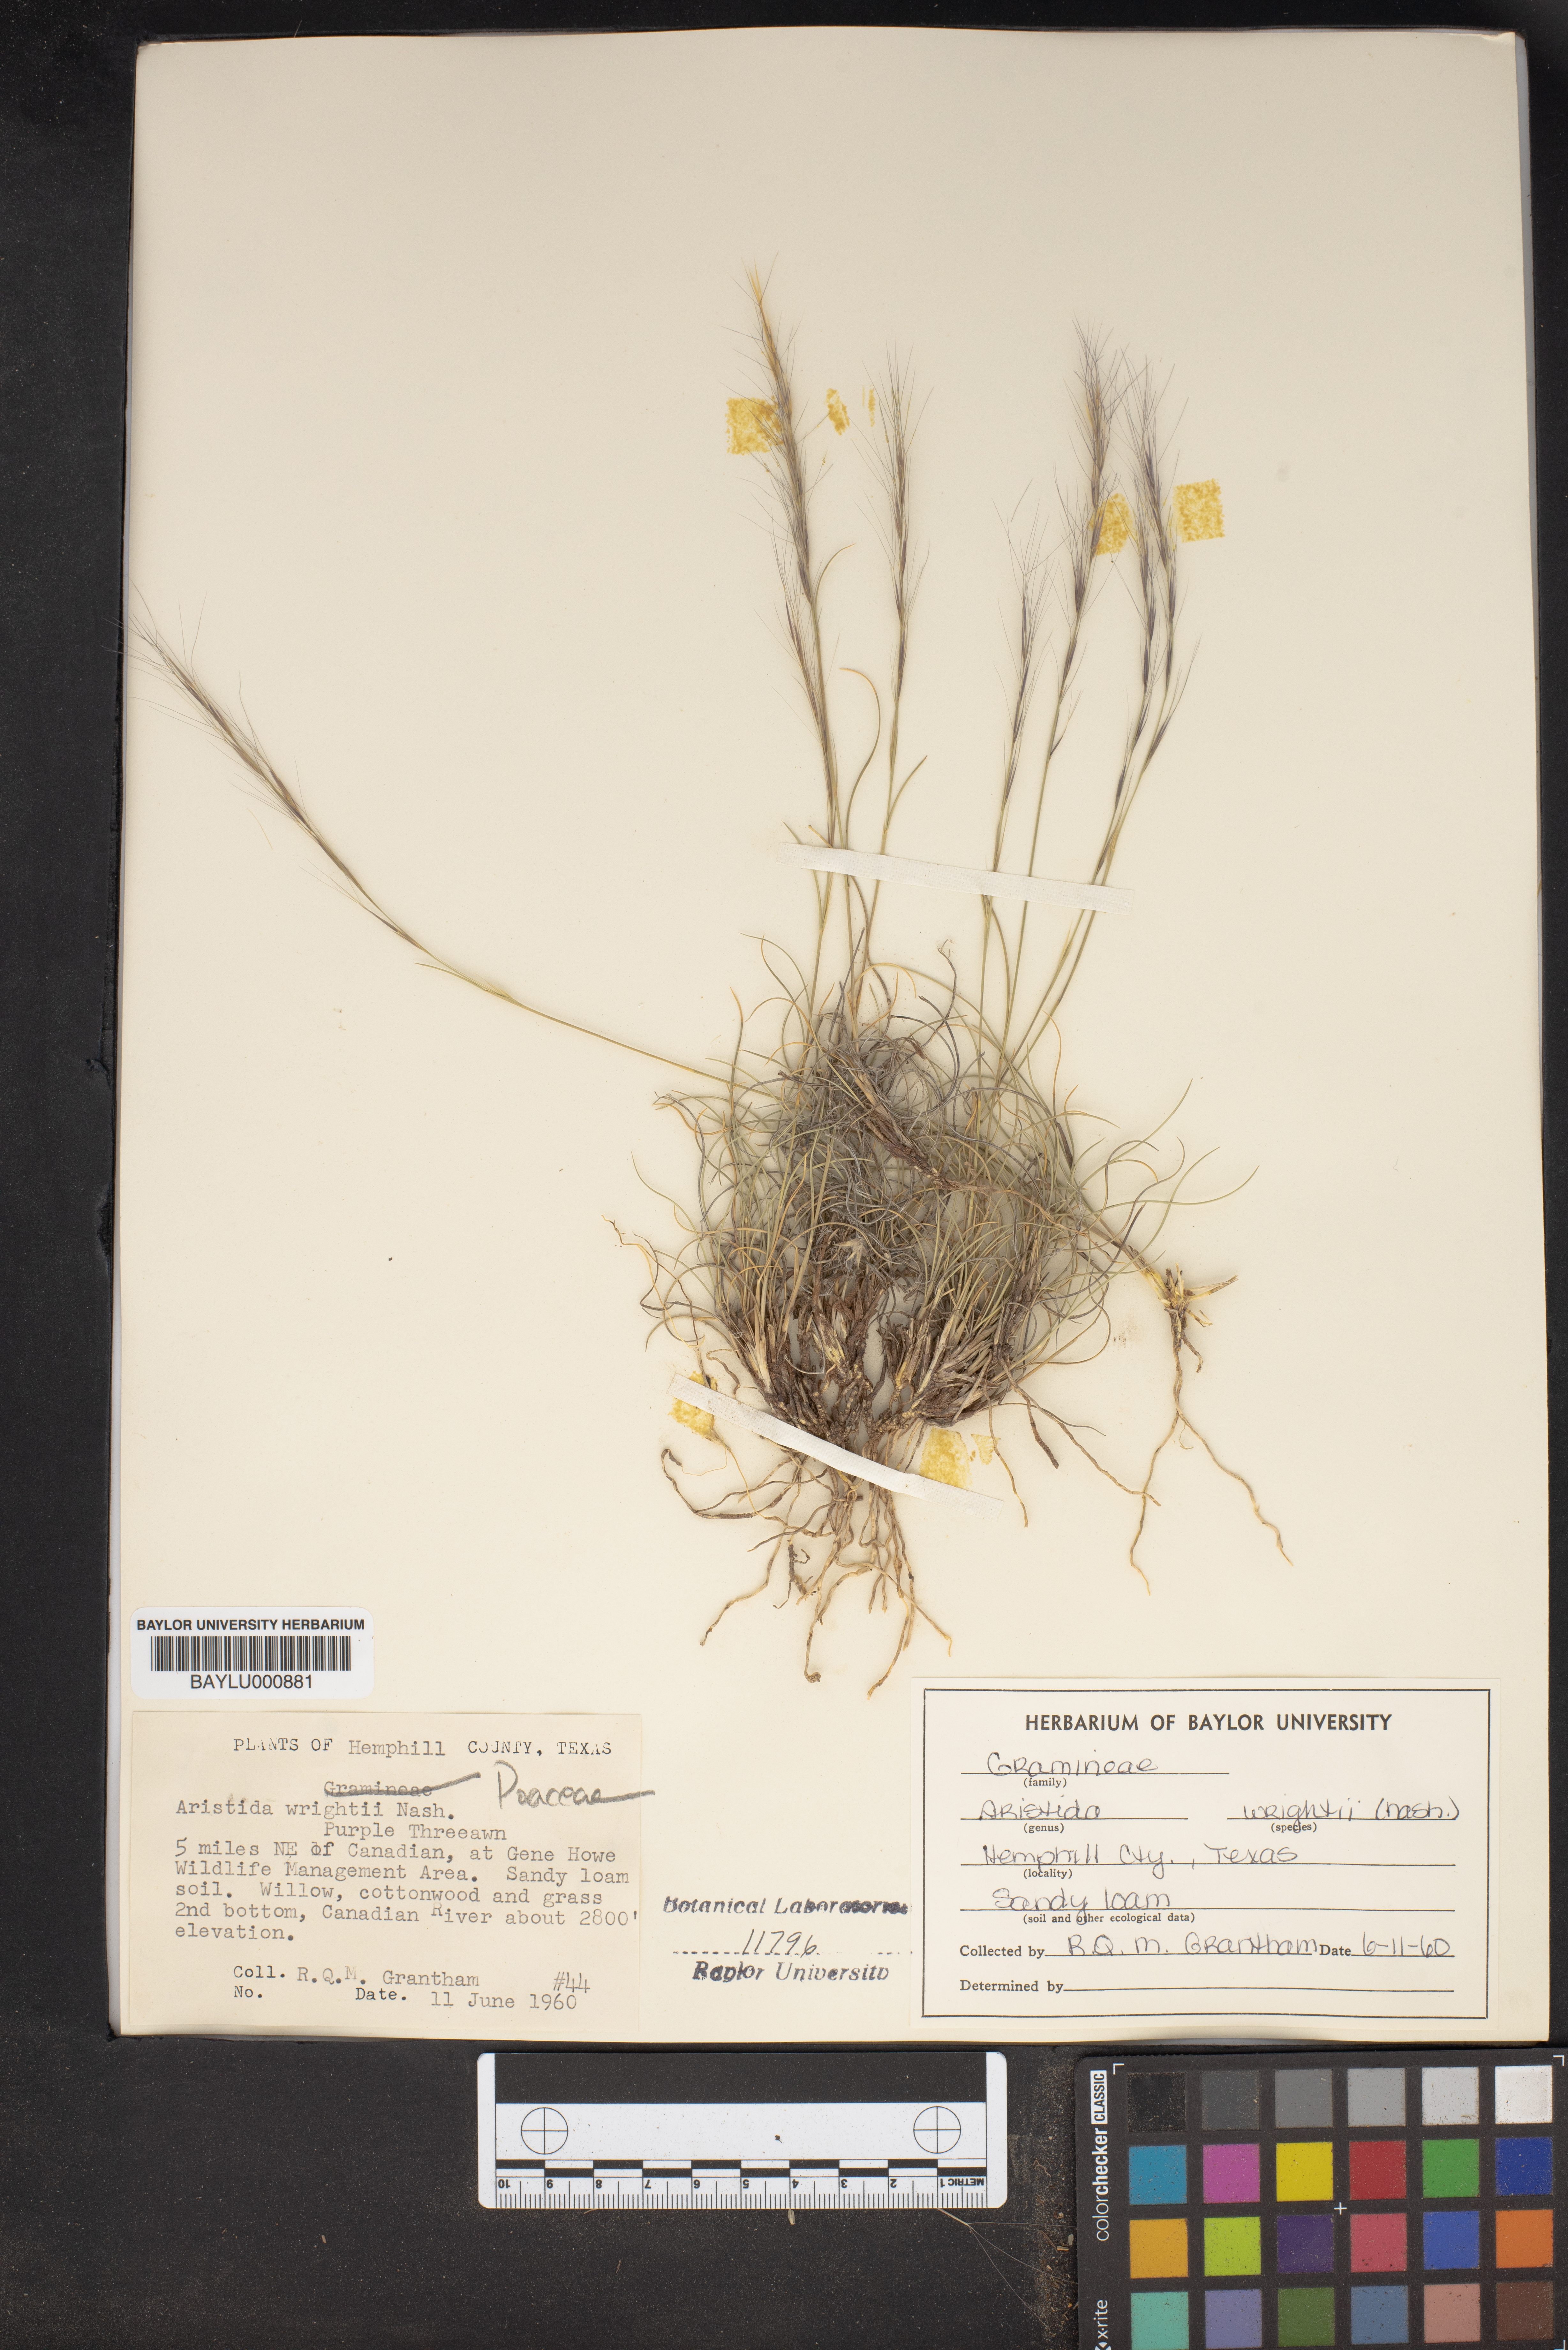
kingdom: Plantae
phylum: Tracheophyta
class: Liliopsida
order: Poales
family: Poaceae
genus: Aristida
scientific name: Aristida wrightii
